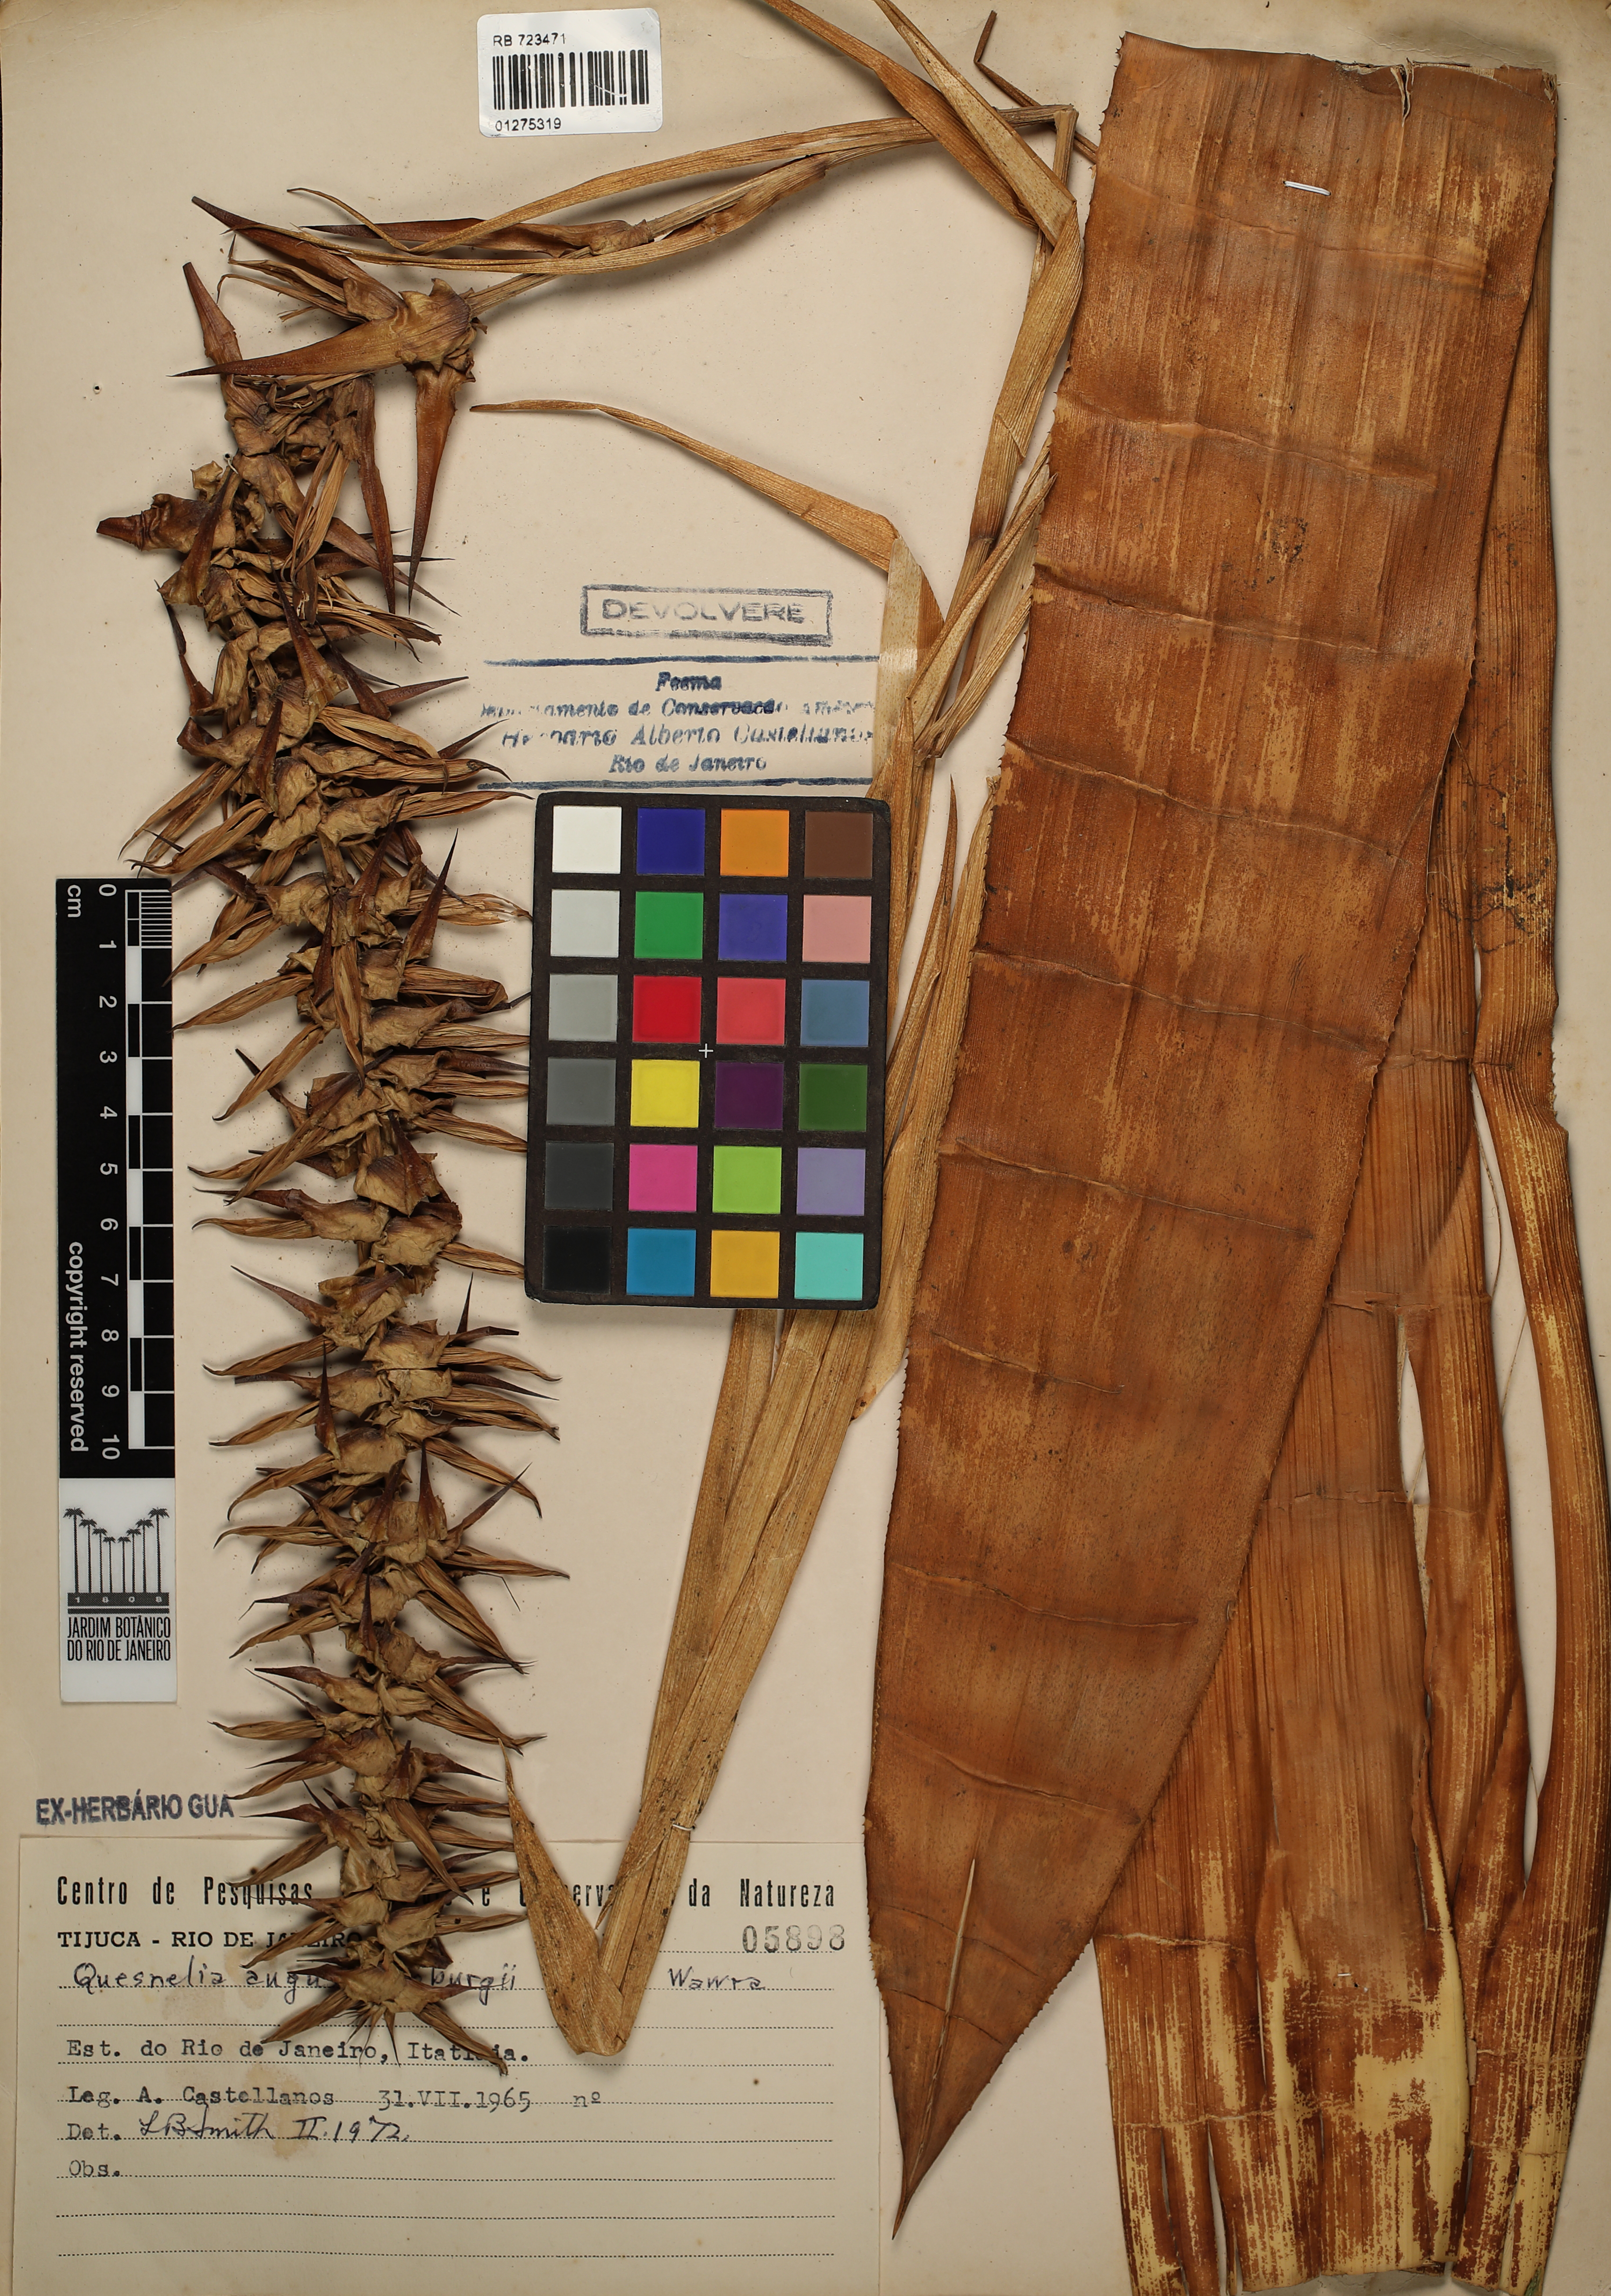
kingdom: Plantae
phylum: Tracheophyta
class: Liliopsida
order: Poales
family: Bromeliaceae
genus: Quesnelia
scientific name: Quesnelia augustocoburgi
